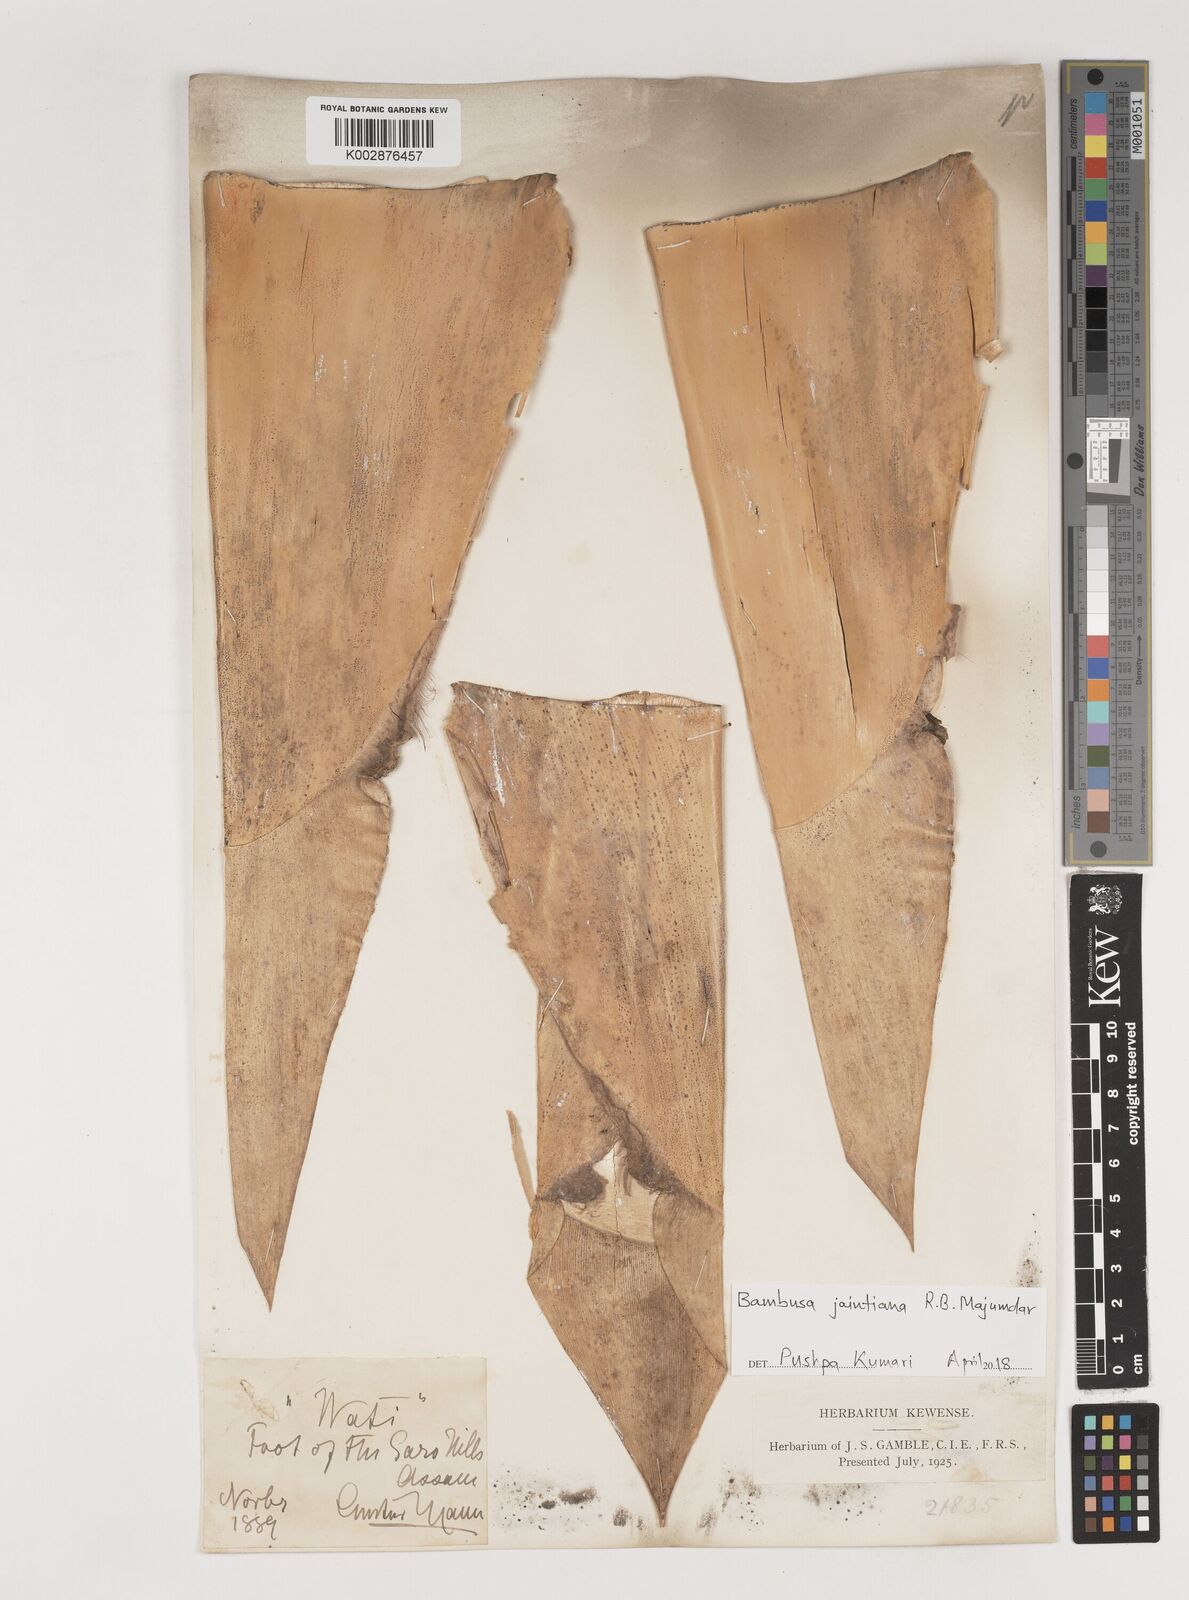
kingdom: Plantae
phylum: Tracheophyta
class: Liliopsida
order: Poales
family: Poaceae
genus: Bambusa
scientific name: Bambusa jaintiana
